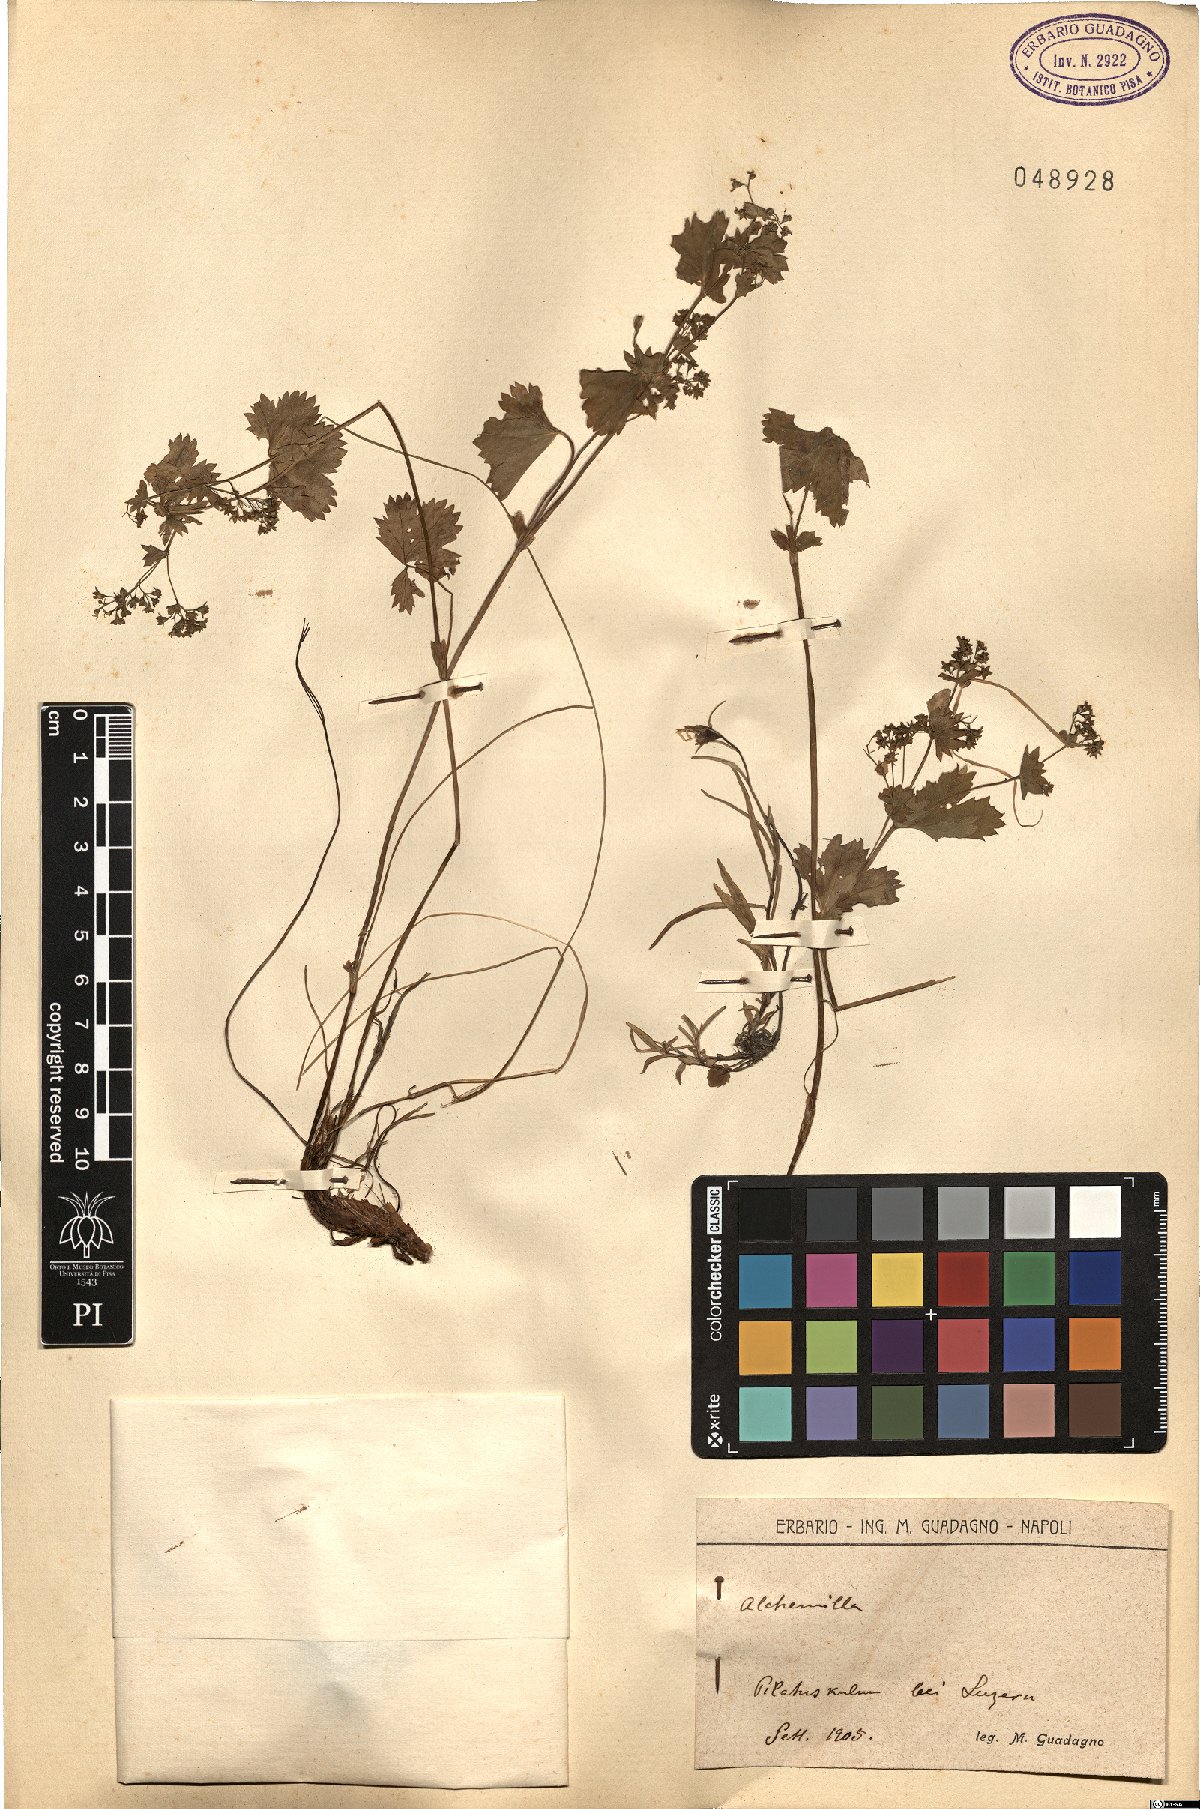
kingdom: Plantae
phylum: Tracheophyta
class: Magnoliopsida
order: Rosales
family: Rosaceae
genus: Alchemilla
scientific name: Alchemilla
